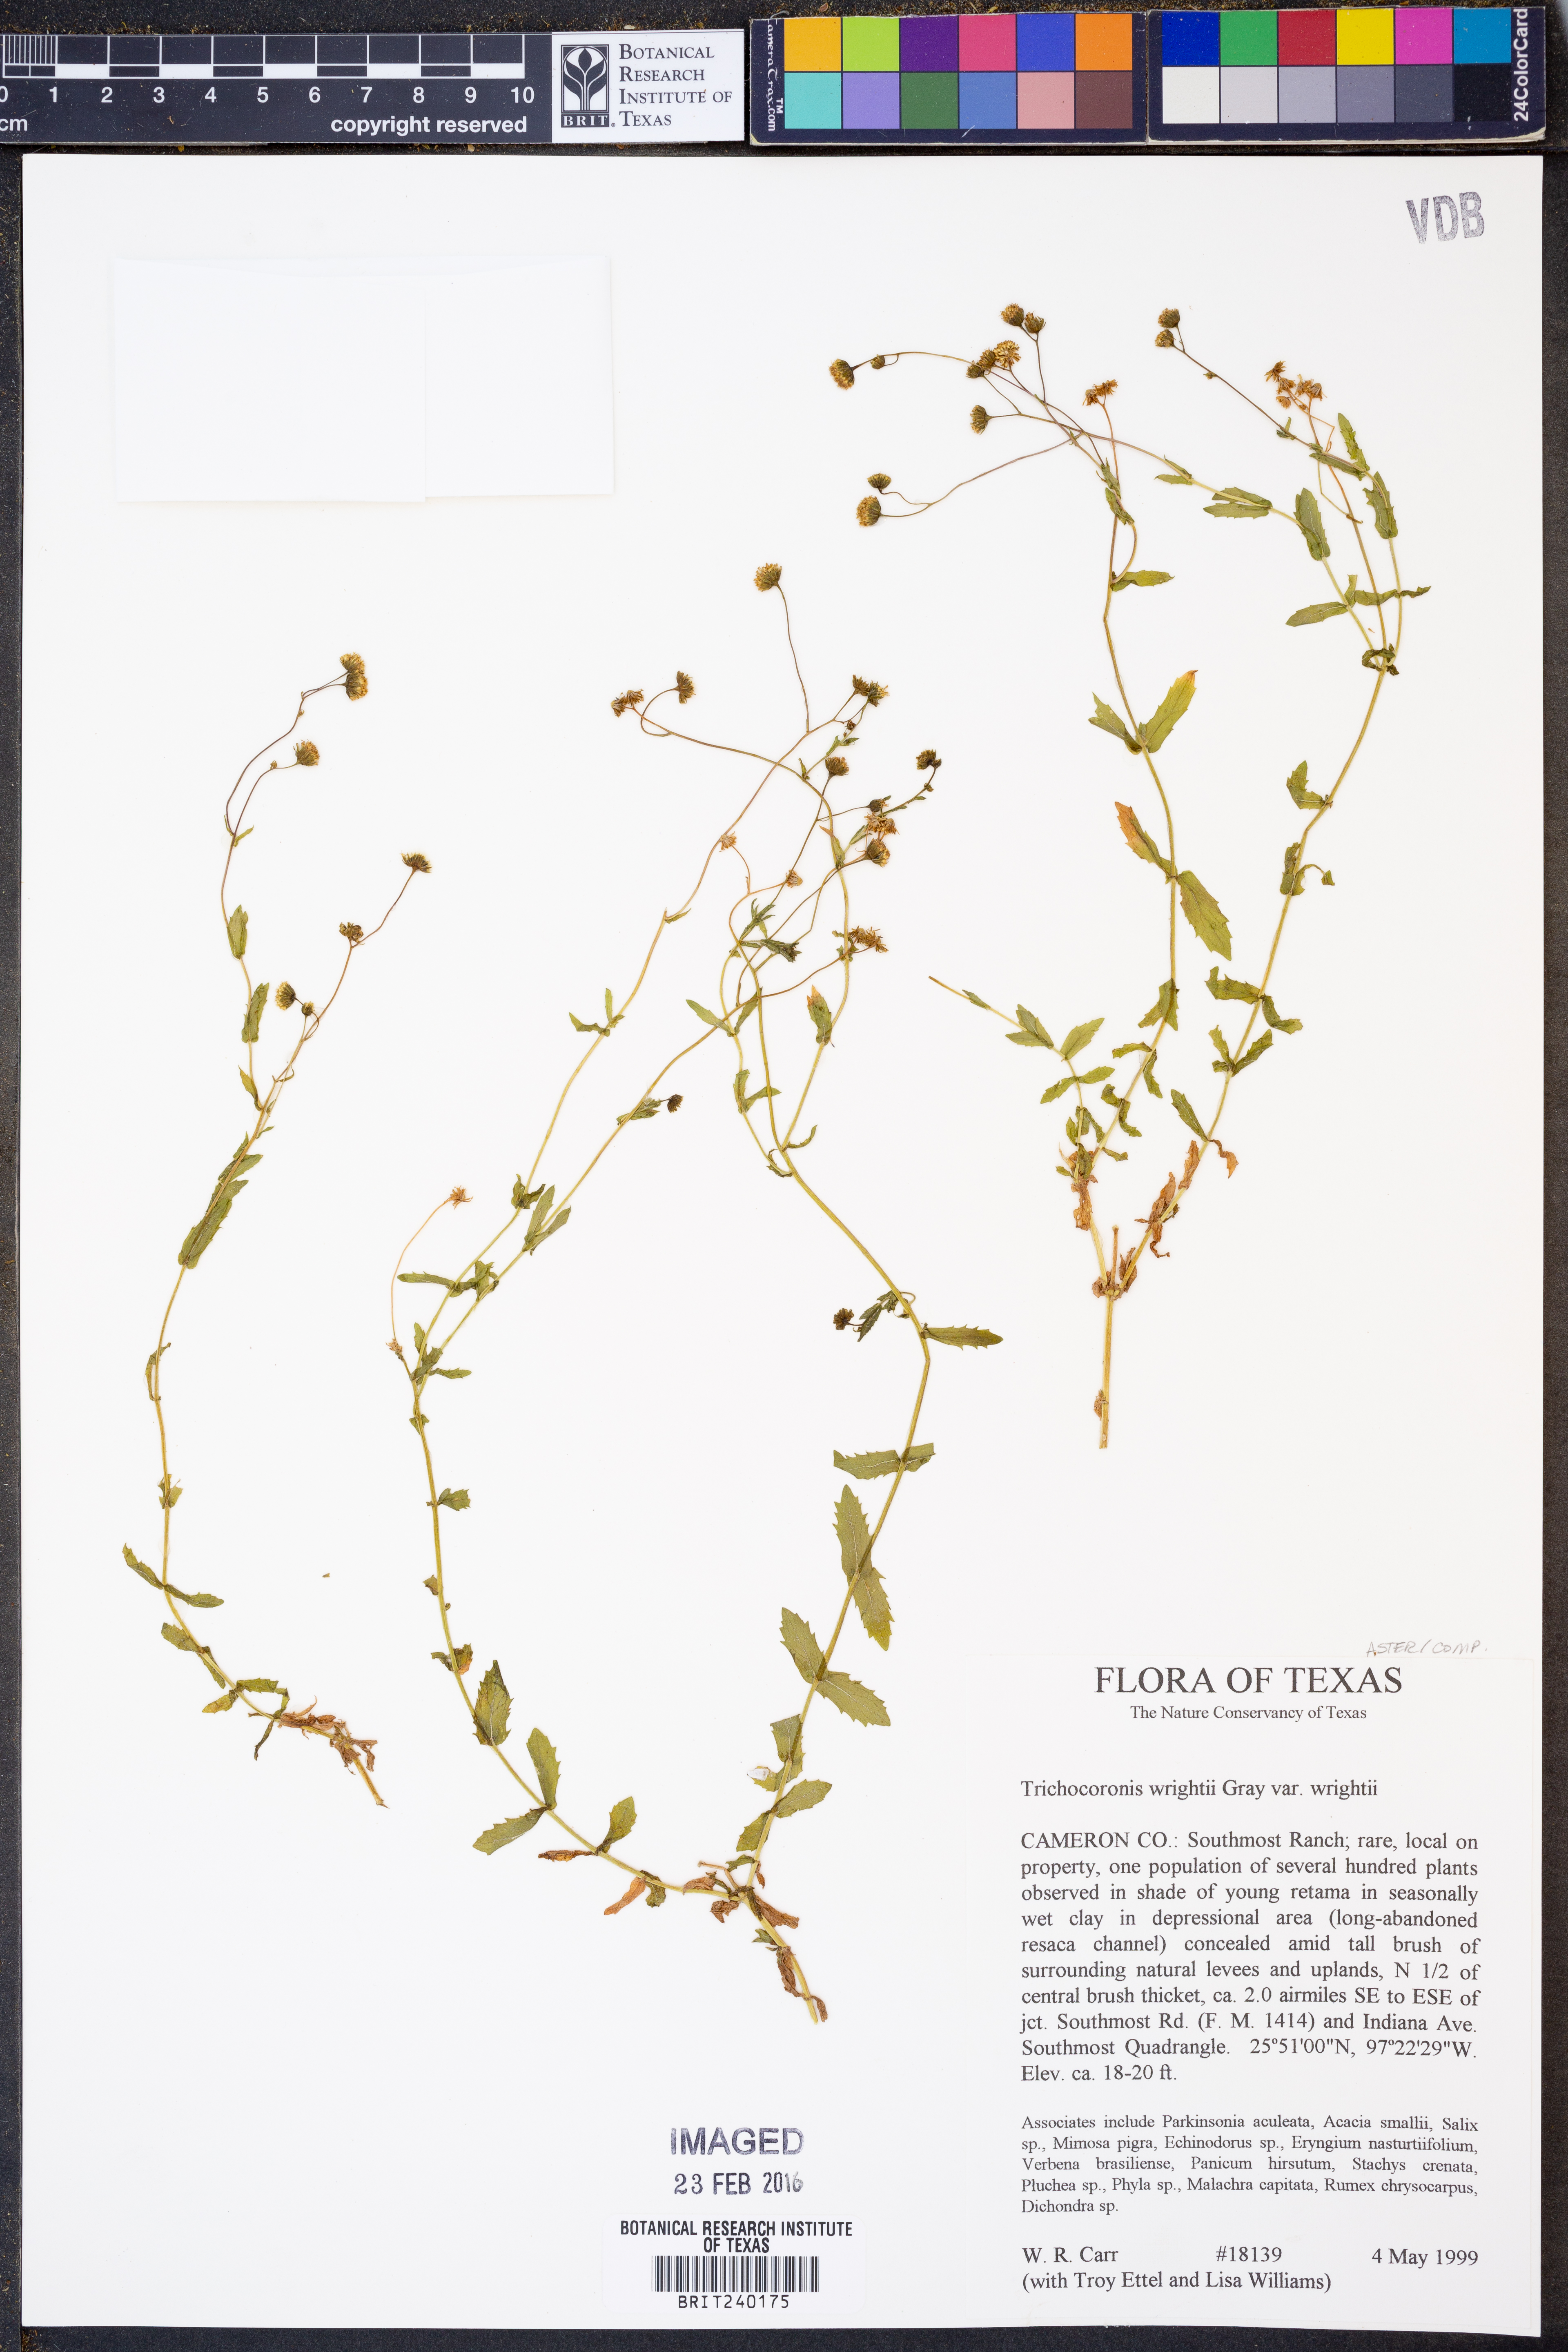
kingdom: Plantae
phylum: Tracheophyta
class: Magnoliopsida
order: Asterales
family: Asteraceae
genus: Trichocoronis
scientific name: Trichocoronis wrightii
